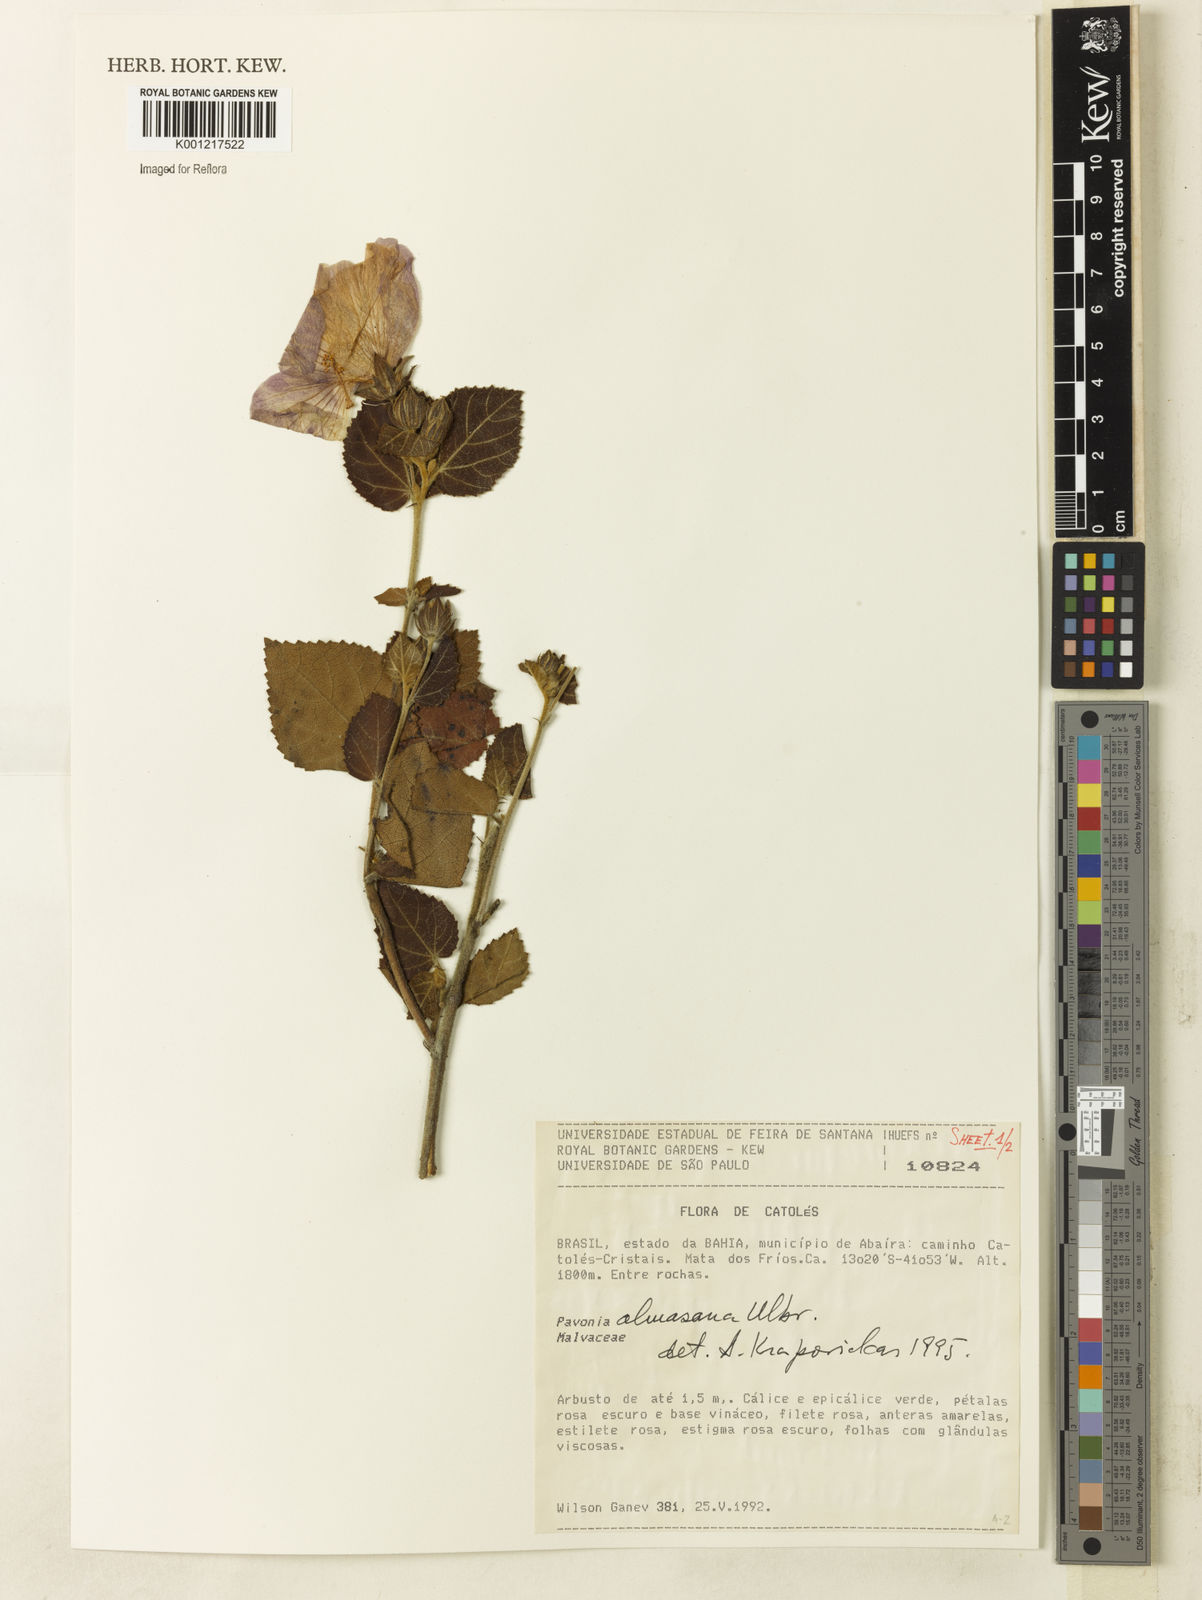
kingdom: Plantae
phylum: Tracheophyta
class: Magnoliopsida
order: Malvales
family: Malvaceae
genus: Pavonia
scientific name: Pavonia almasana
